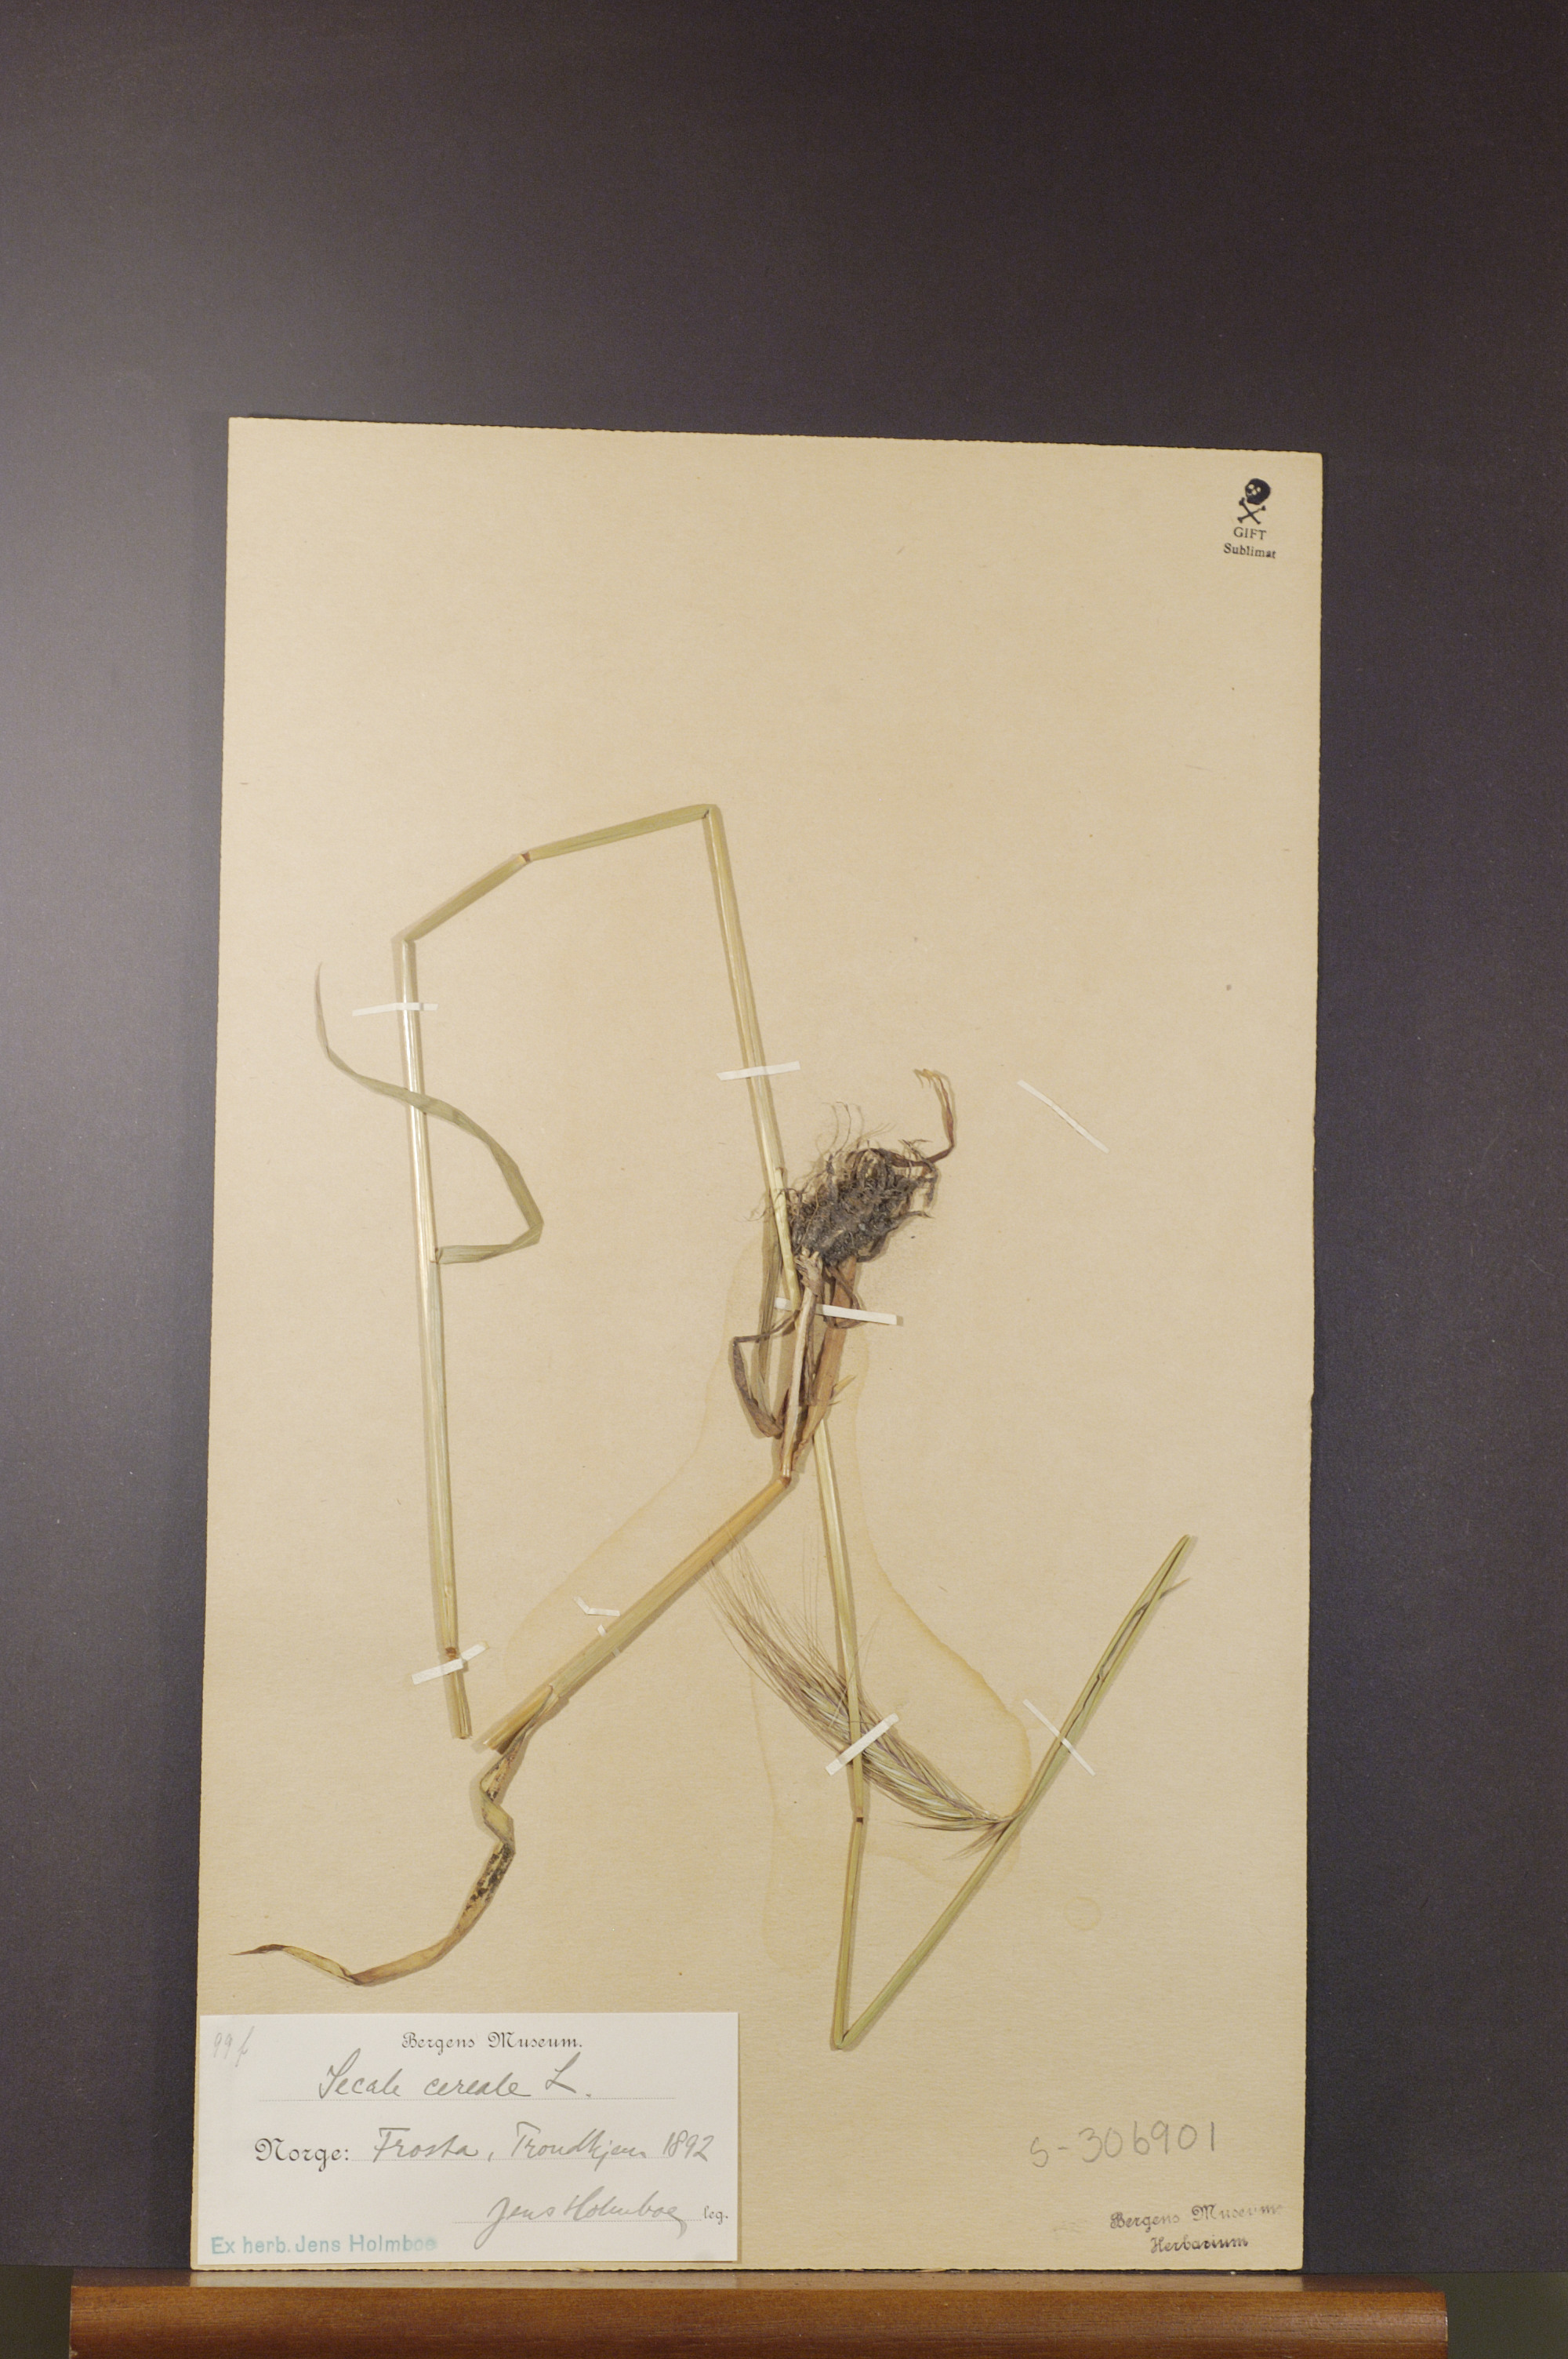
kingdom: Plantae
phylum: Tracheophyta
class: Liliopsida
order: Poales
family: Poaceae
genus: Secale
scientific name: Secale cereale
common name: Rye
